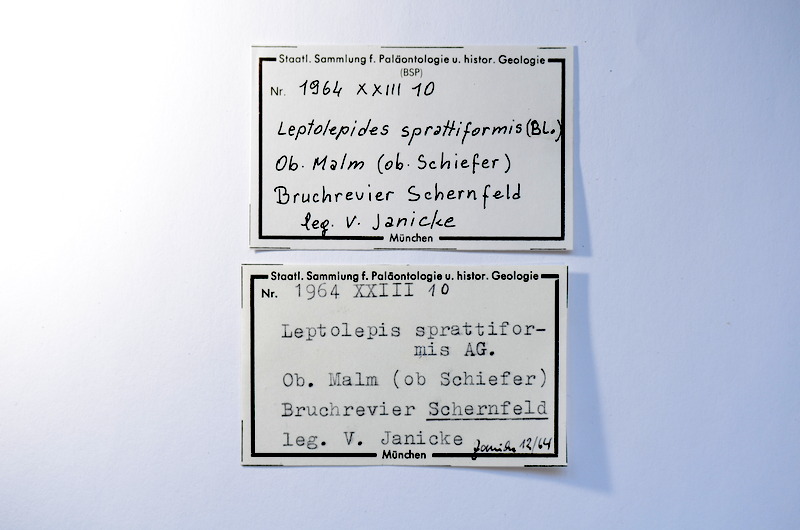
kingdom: Animalia
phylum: Chordata
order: Salmoniformes
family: Orthogonikleithridae
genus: Leptolepides
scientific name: Leptolepides sprattiformis
